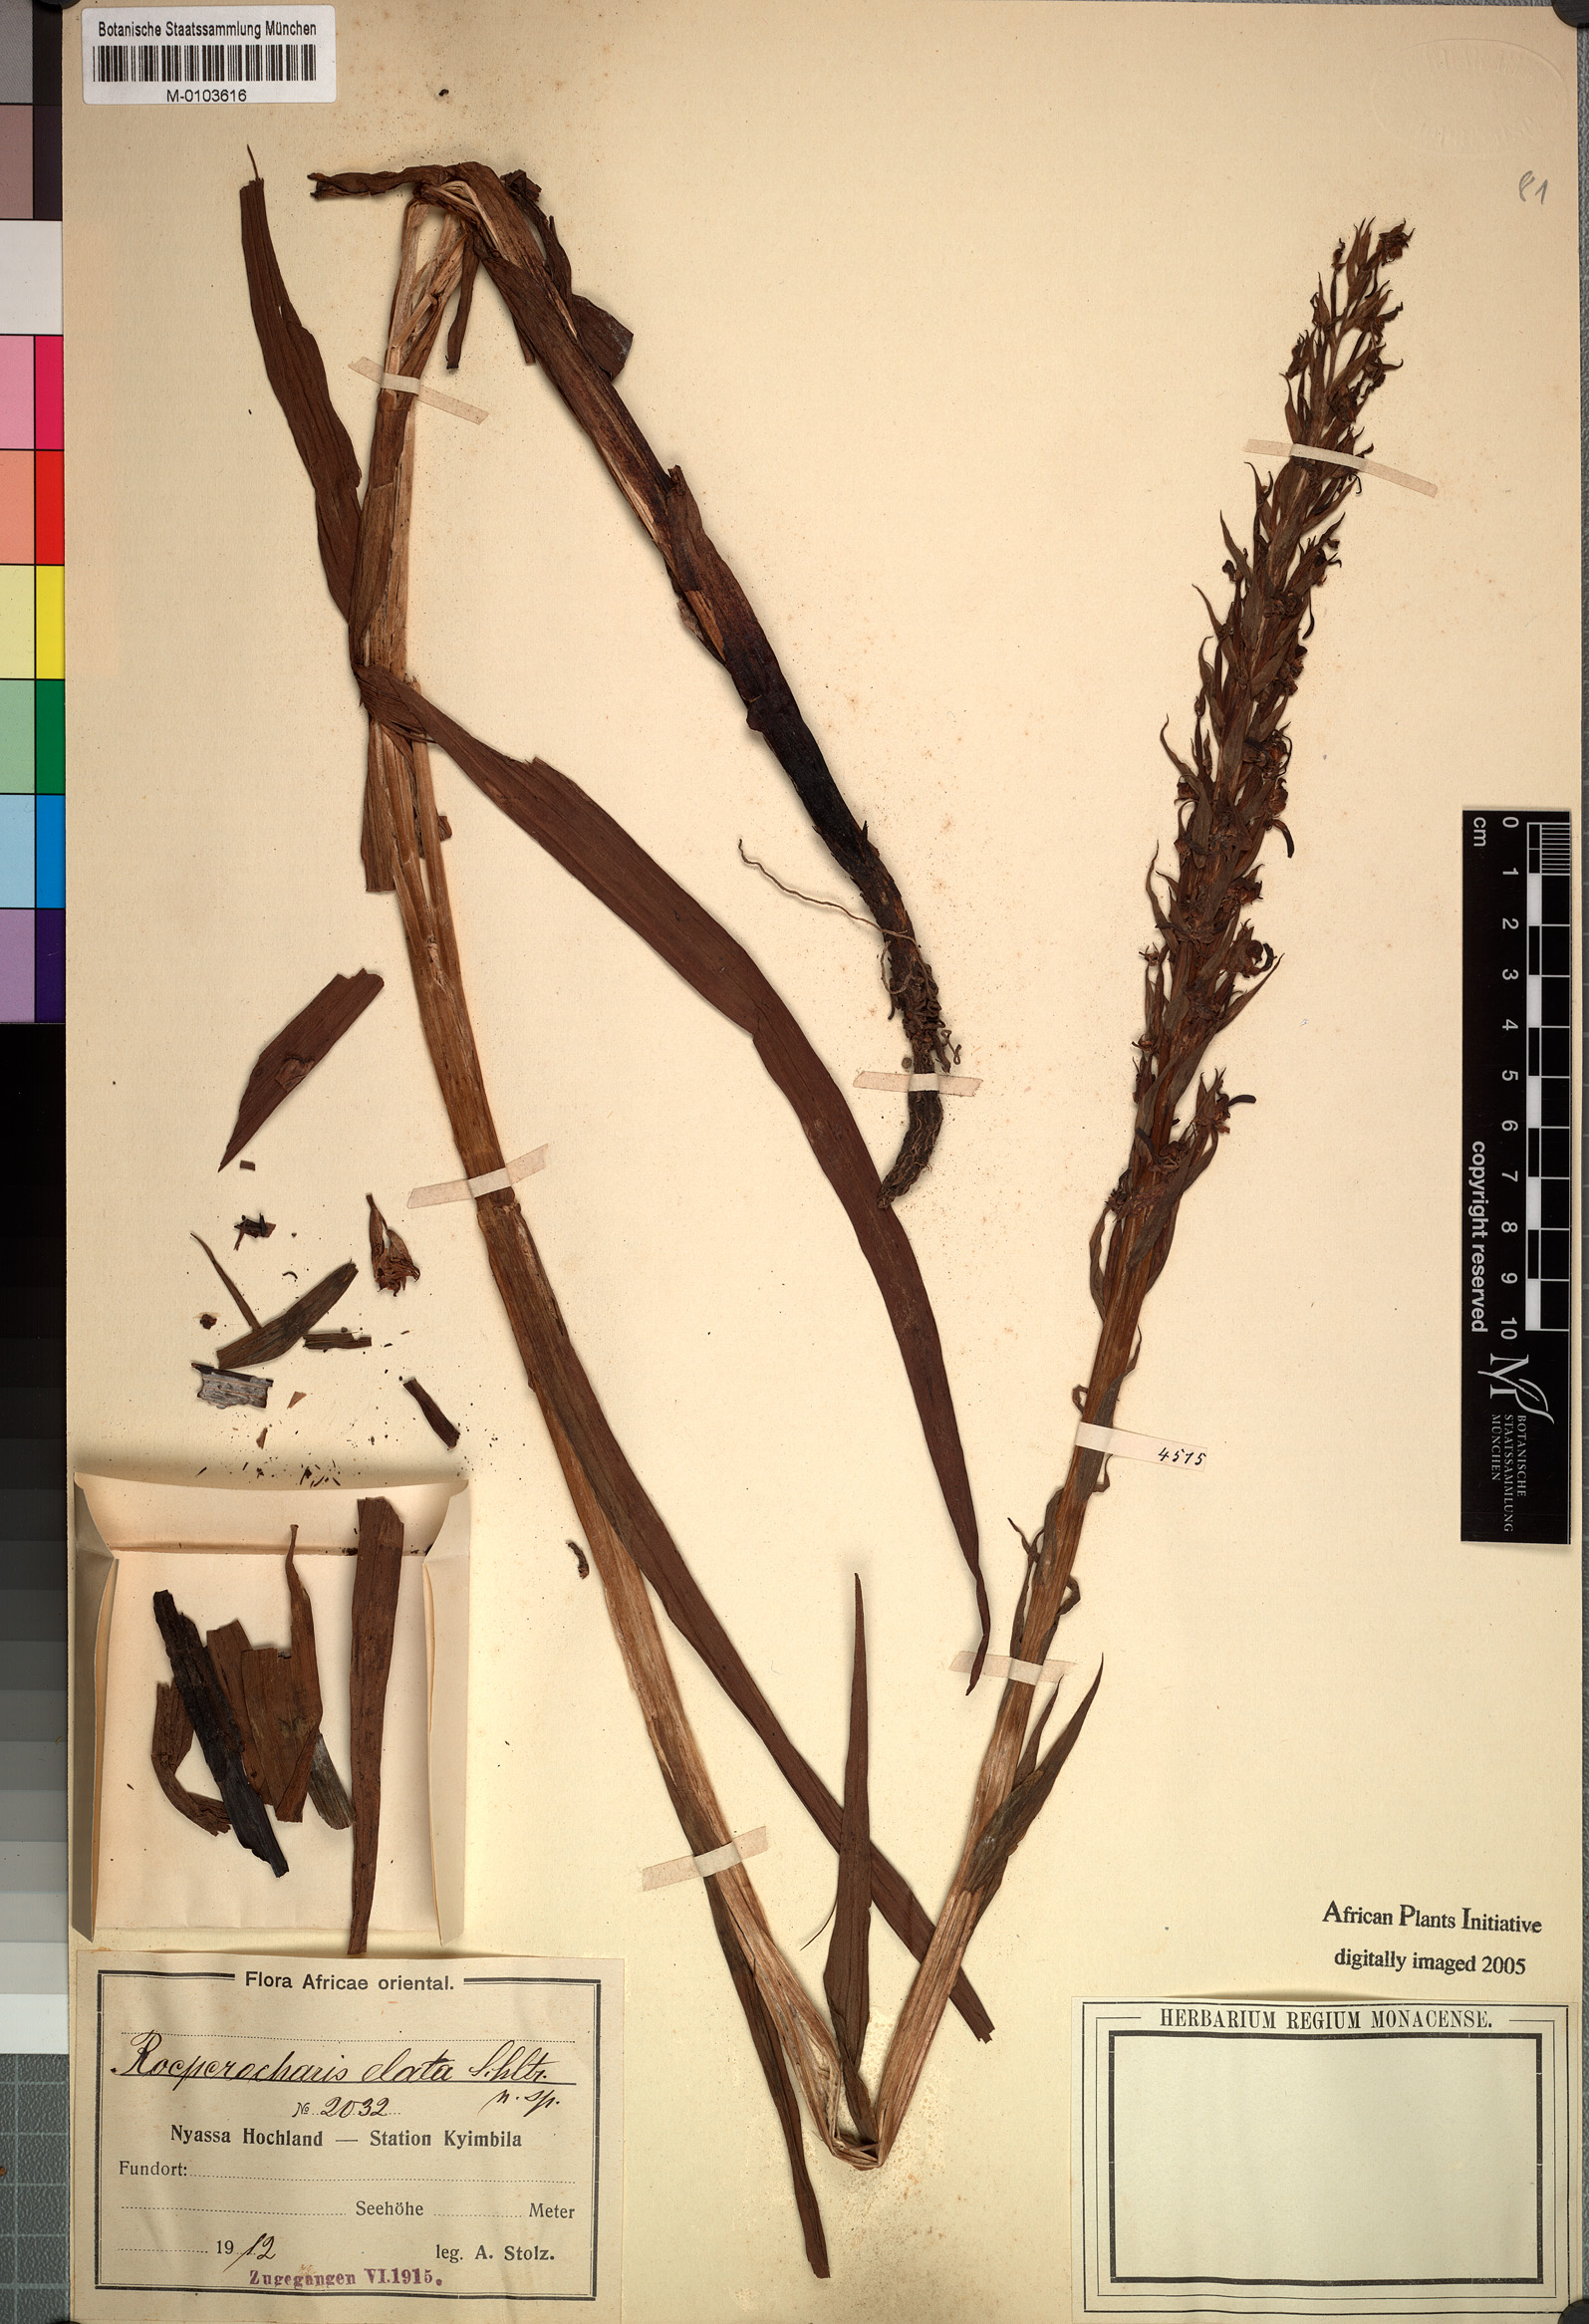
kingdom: Plantae
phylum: Tracheophyta
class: Liliopsida
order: Asparagales
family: Orchidaceae
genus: Roeperocharis
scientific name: Roeperocharis bennettiana
